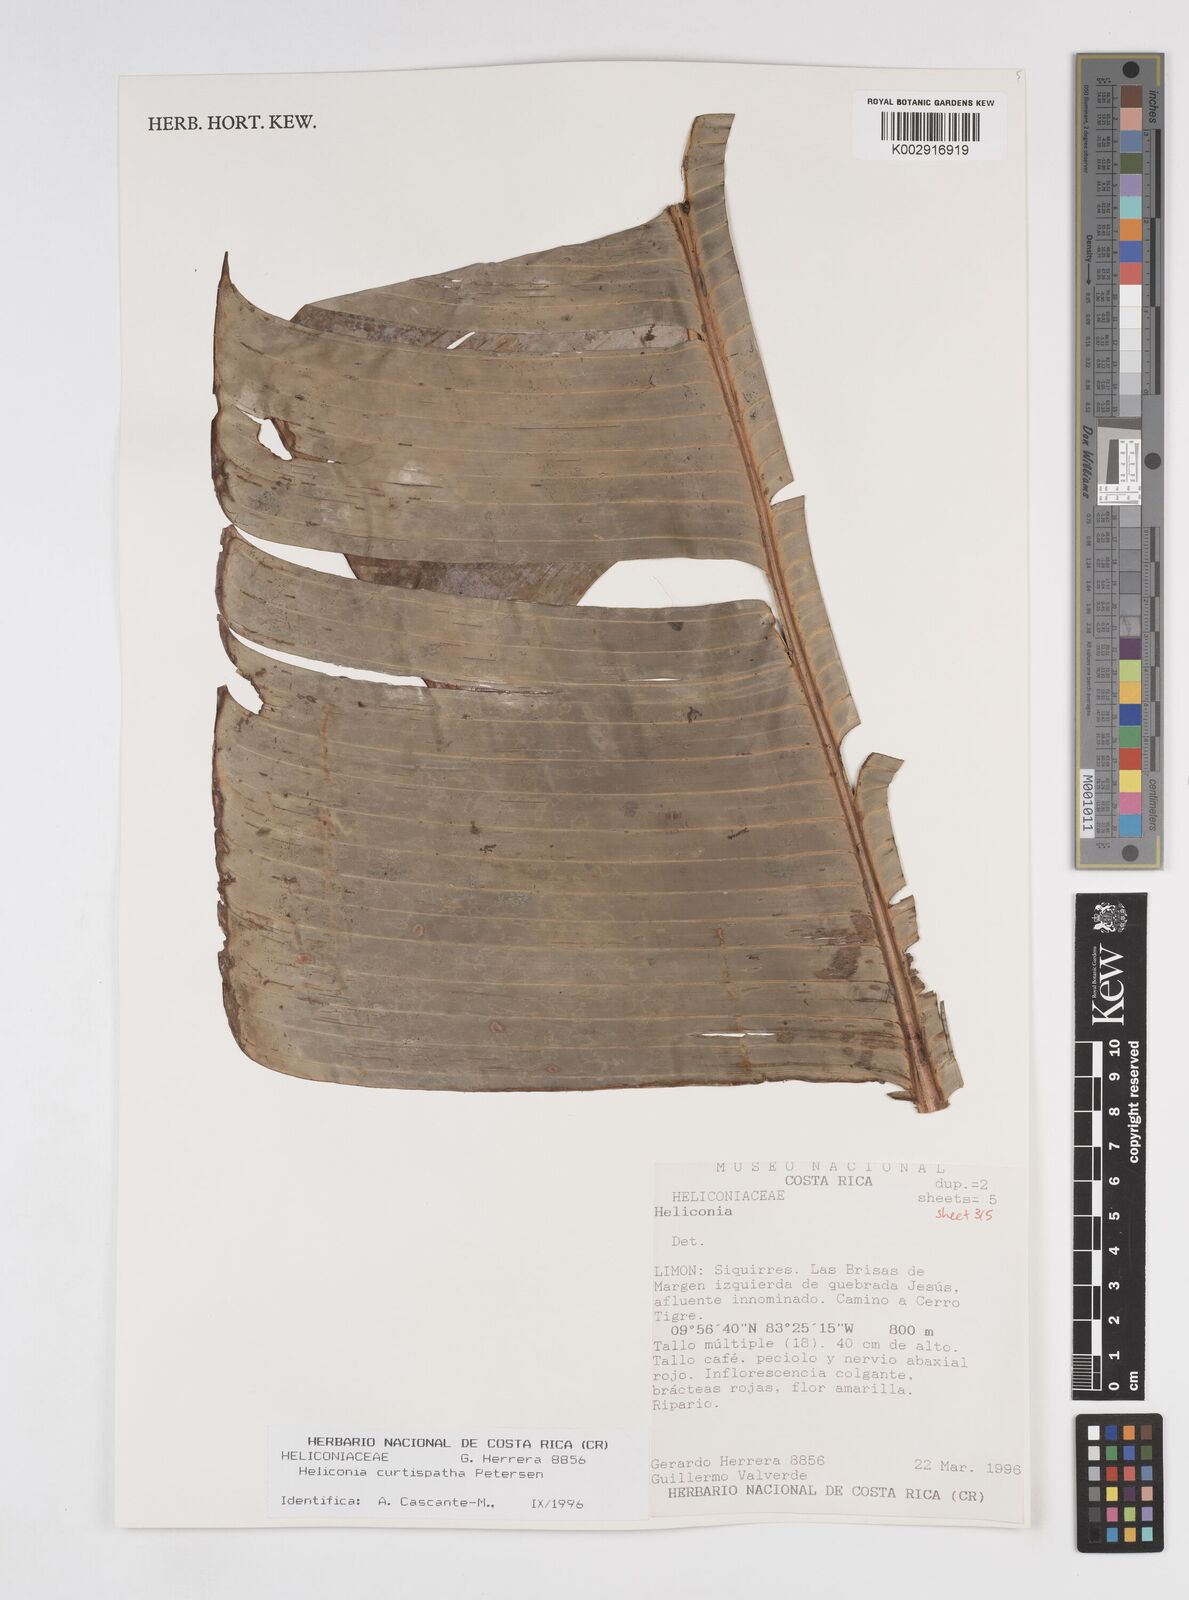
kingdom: Plantae
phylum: Tracheophyta
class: Liliopsida
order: Zingiberales
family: Heliconiaceae
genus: Heliconia
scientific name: Heliconia curtispatha
